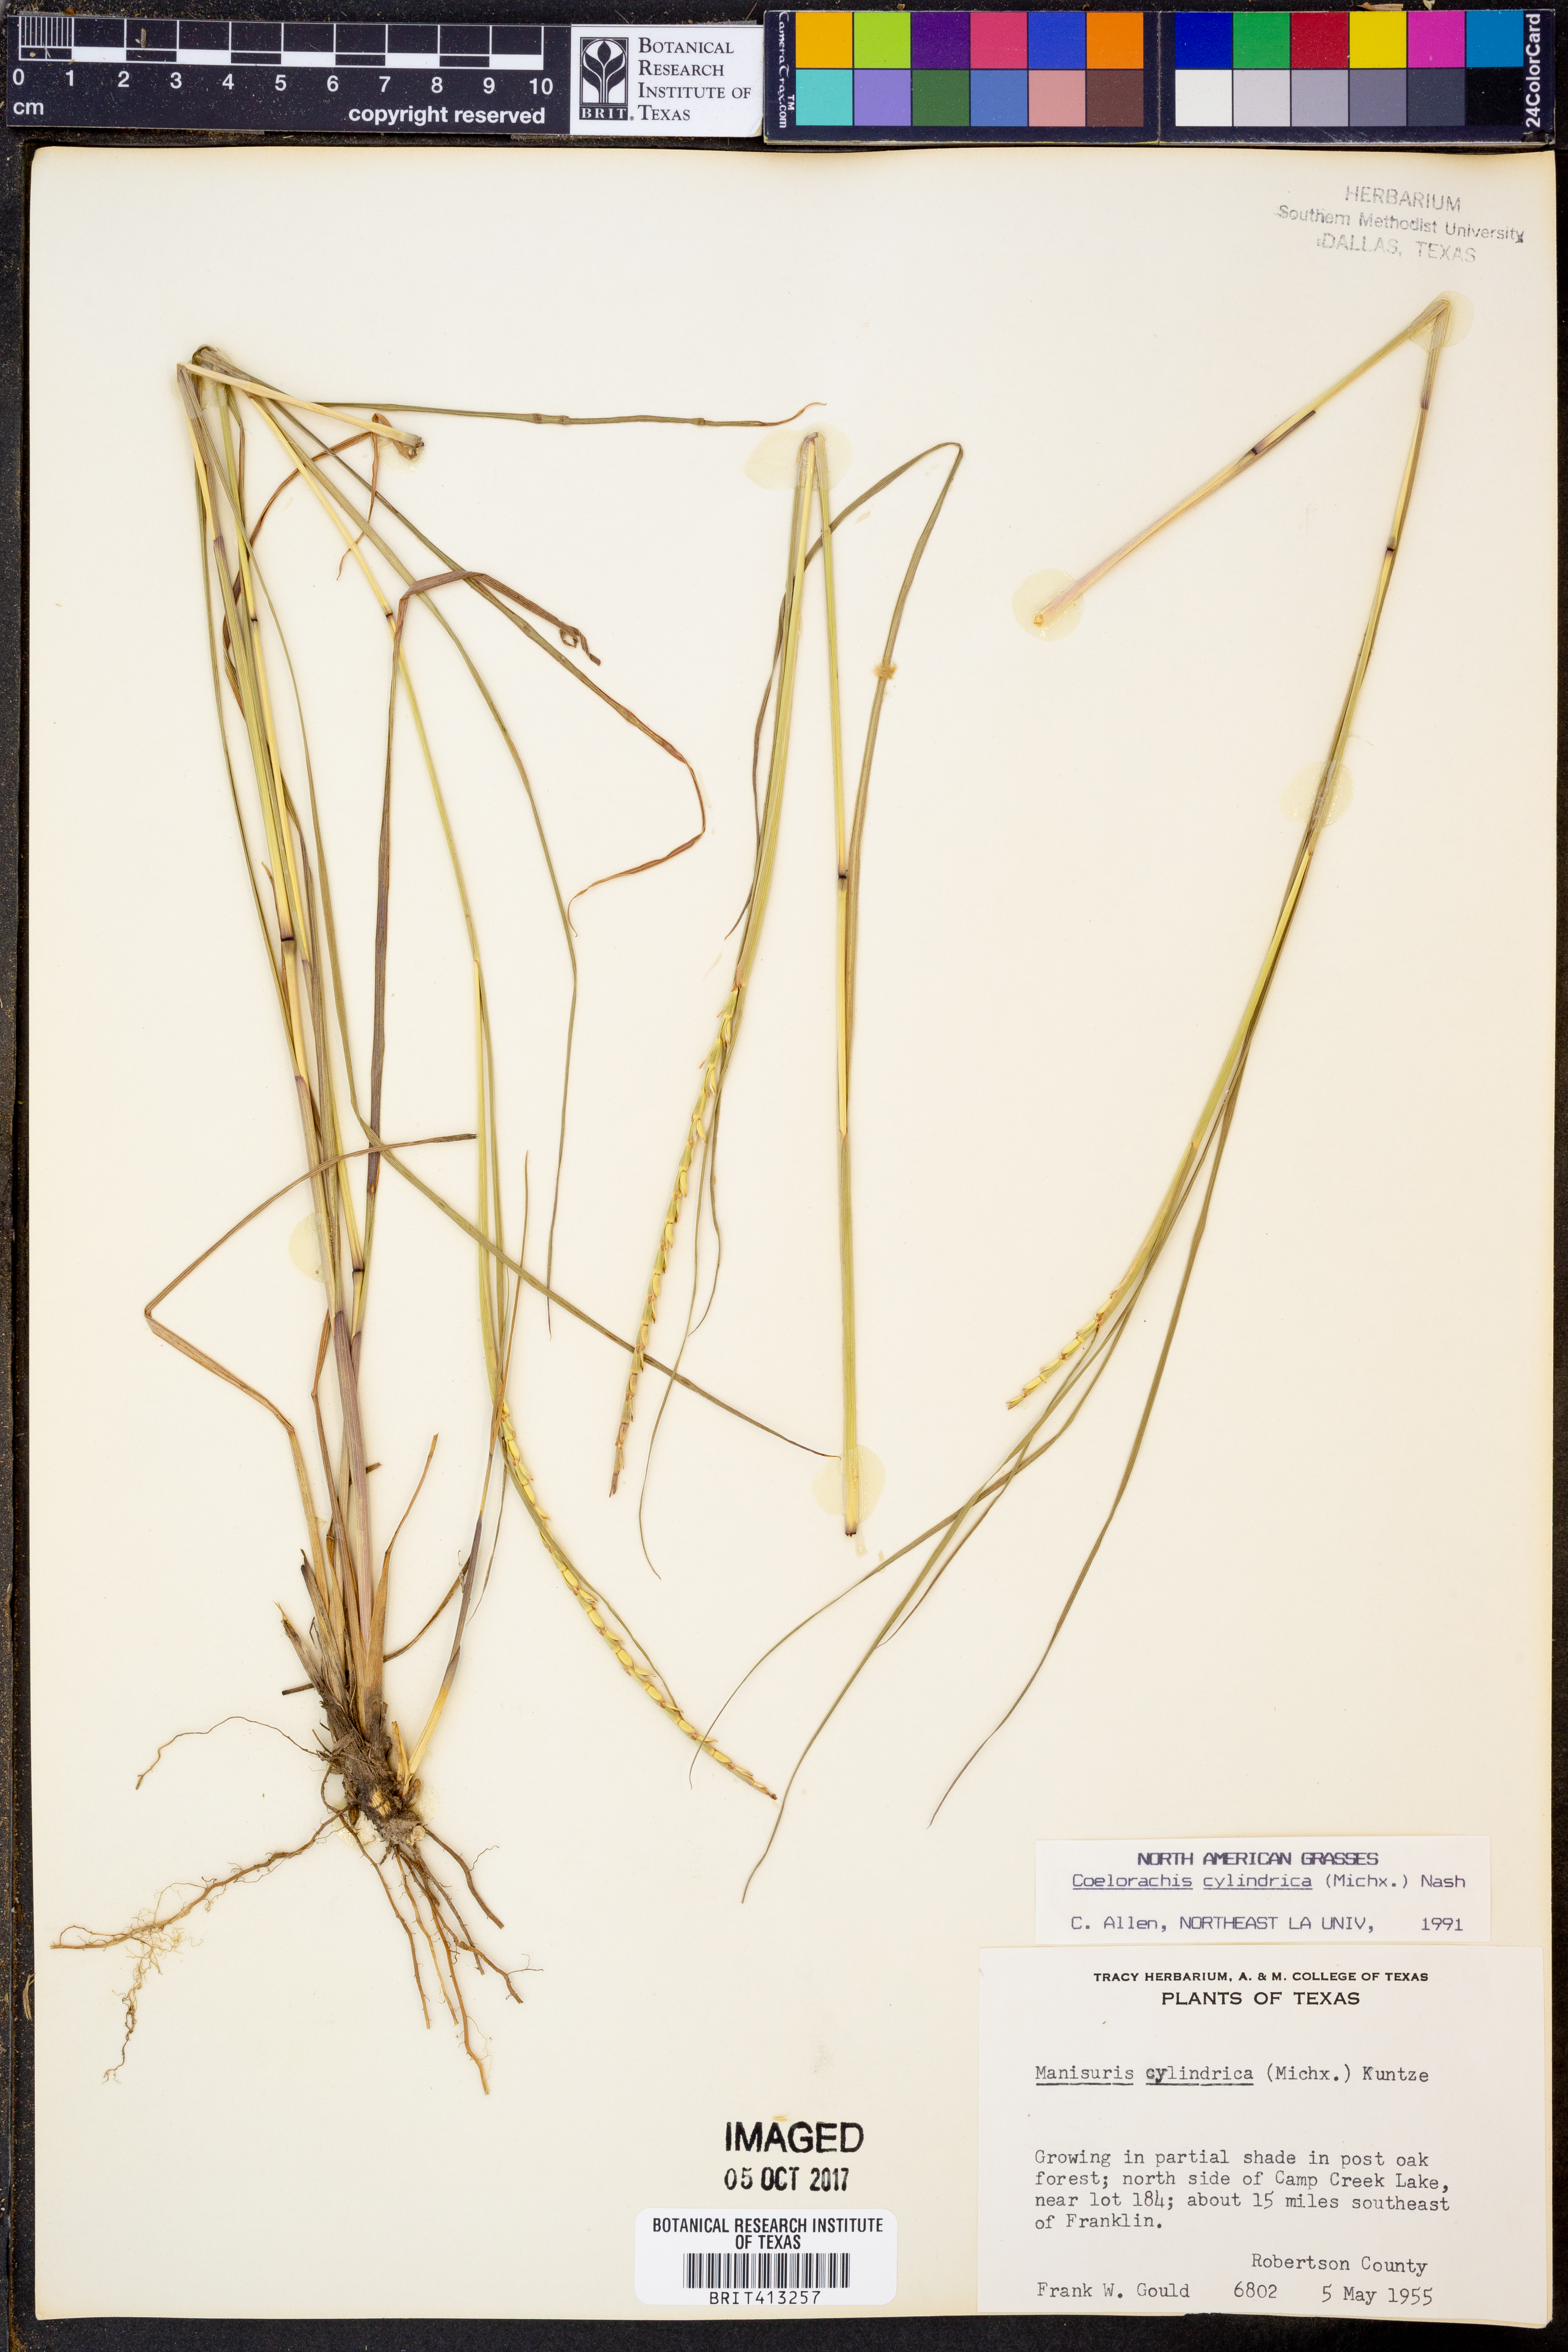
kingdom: Plantae
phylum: Tracheophyta
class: Liliopsida
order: Poales
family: Poaceae
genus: Rottboellia
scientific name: Rottboellia campestris
